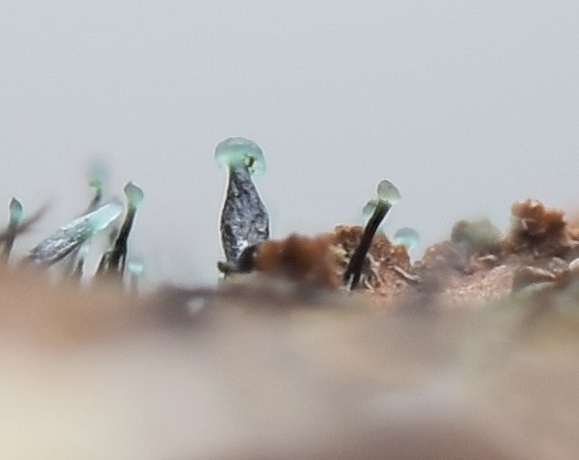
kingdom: Fungi
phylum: Ascomycota
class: Leotiomycetes
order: Leotiales
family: Tympanidaceae
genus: Dendrostilbella
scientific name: Dendrostilbella smaragdina
